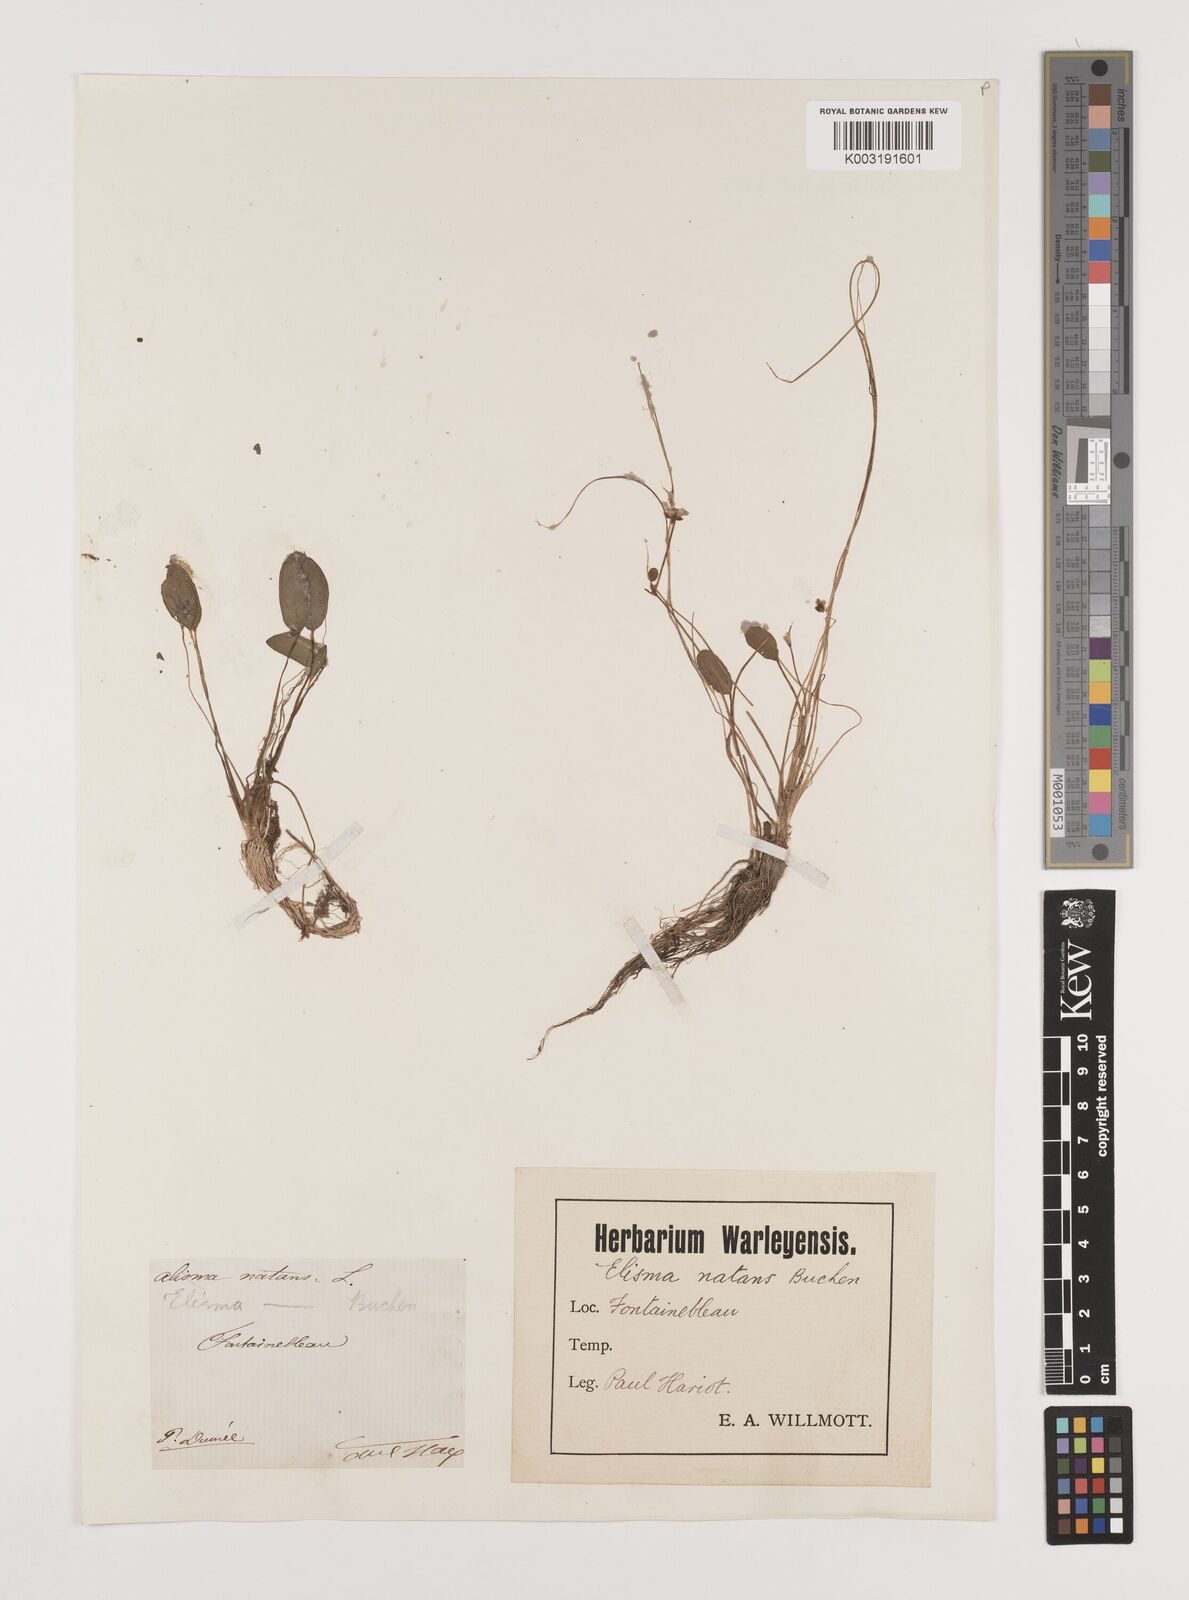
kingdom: Plantae
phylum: Tracheophyta
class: Liliopsida
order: Alismatales
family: Alismataceae
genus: Luronium
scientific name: Luronium natans
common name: Floating water-plantain
